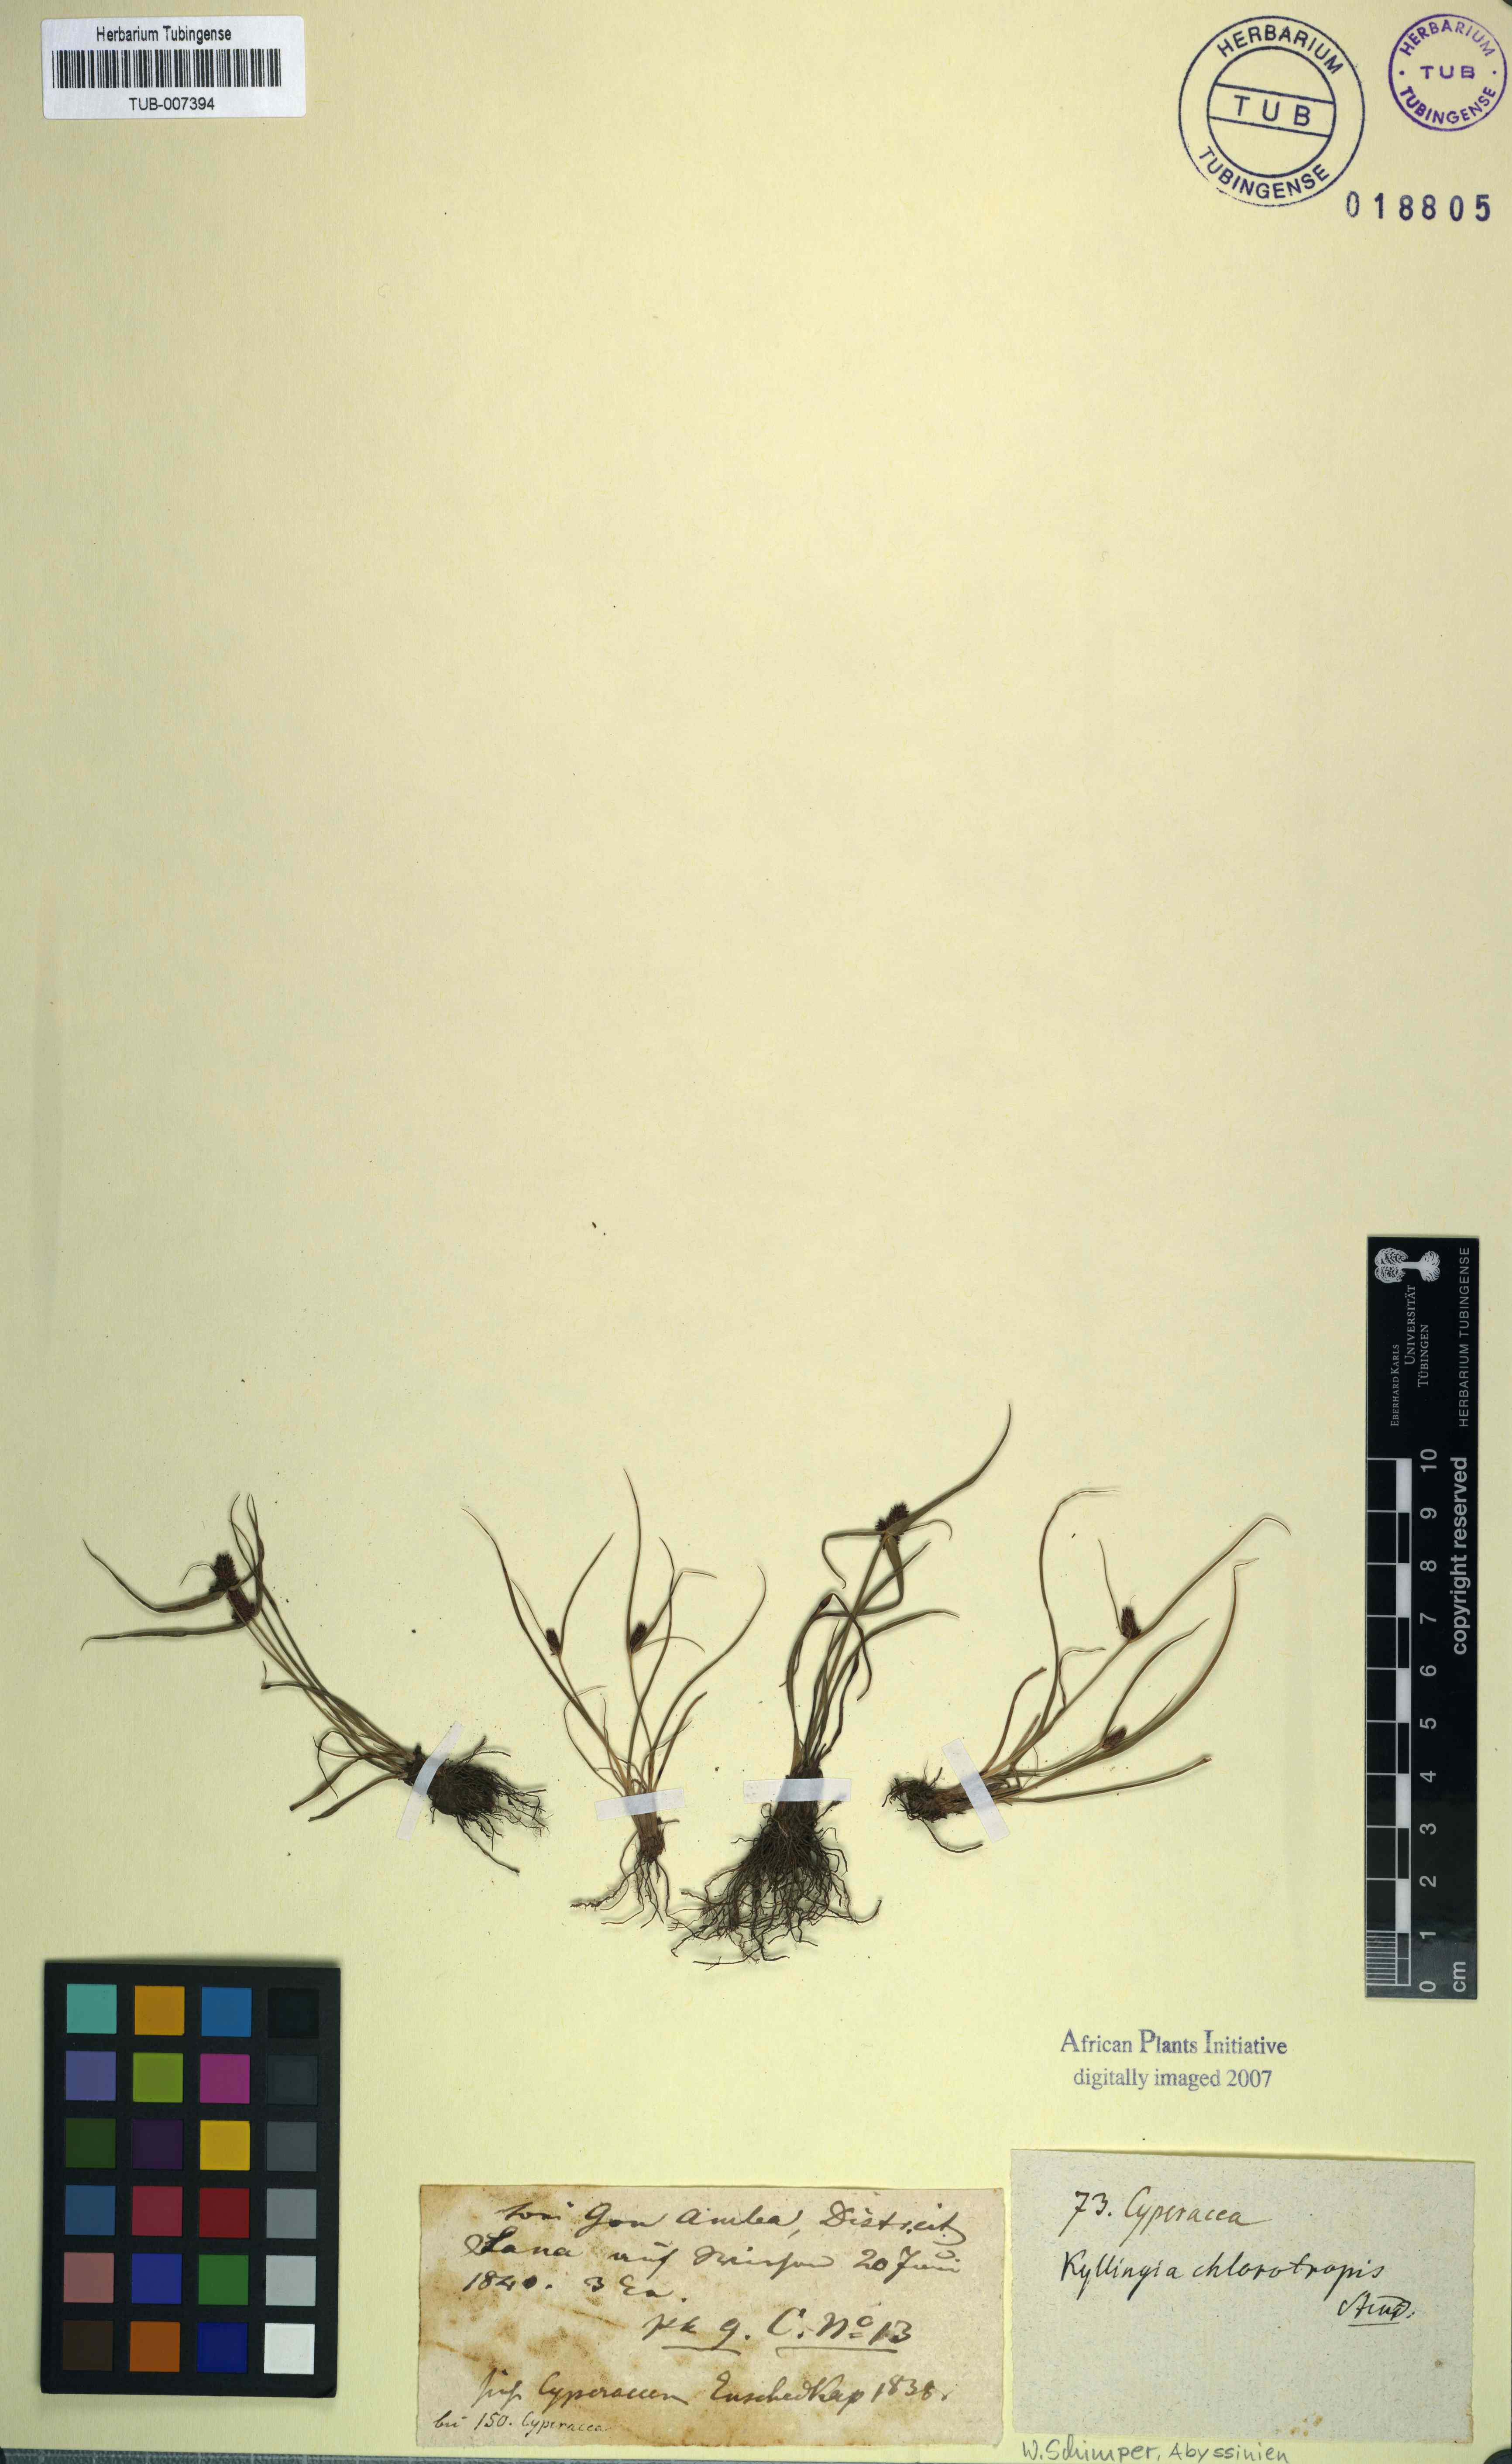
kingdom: Plantae
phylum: Tracheophyta
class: Liliopsida
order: Poales
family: Cyperaceae
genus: Cyperus
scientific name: Cyperus chlorotropis
